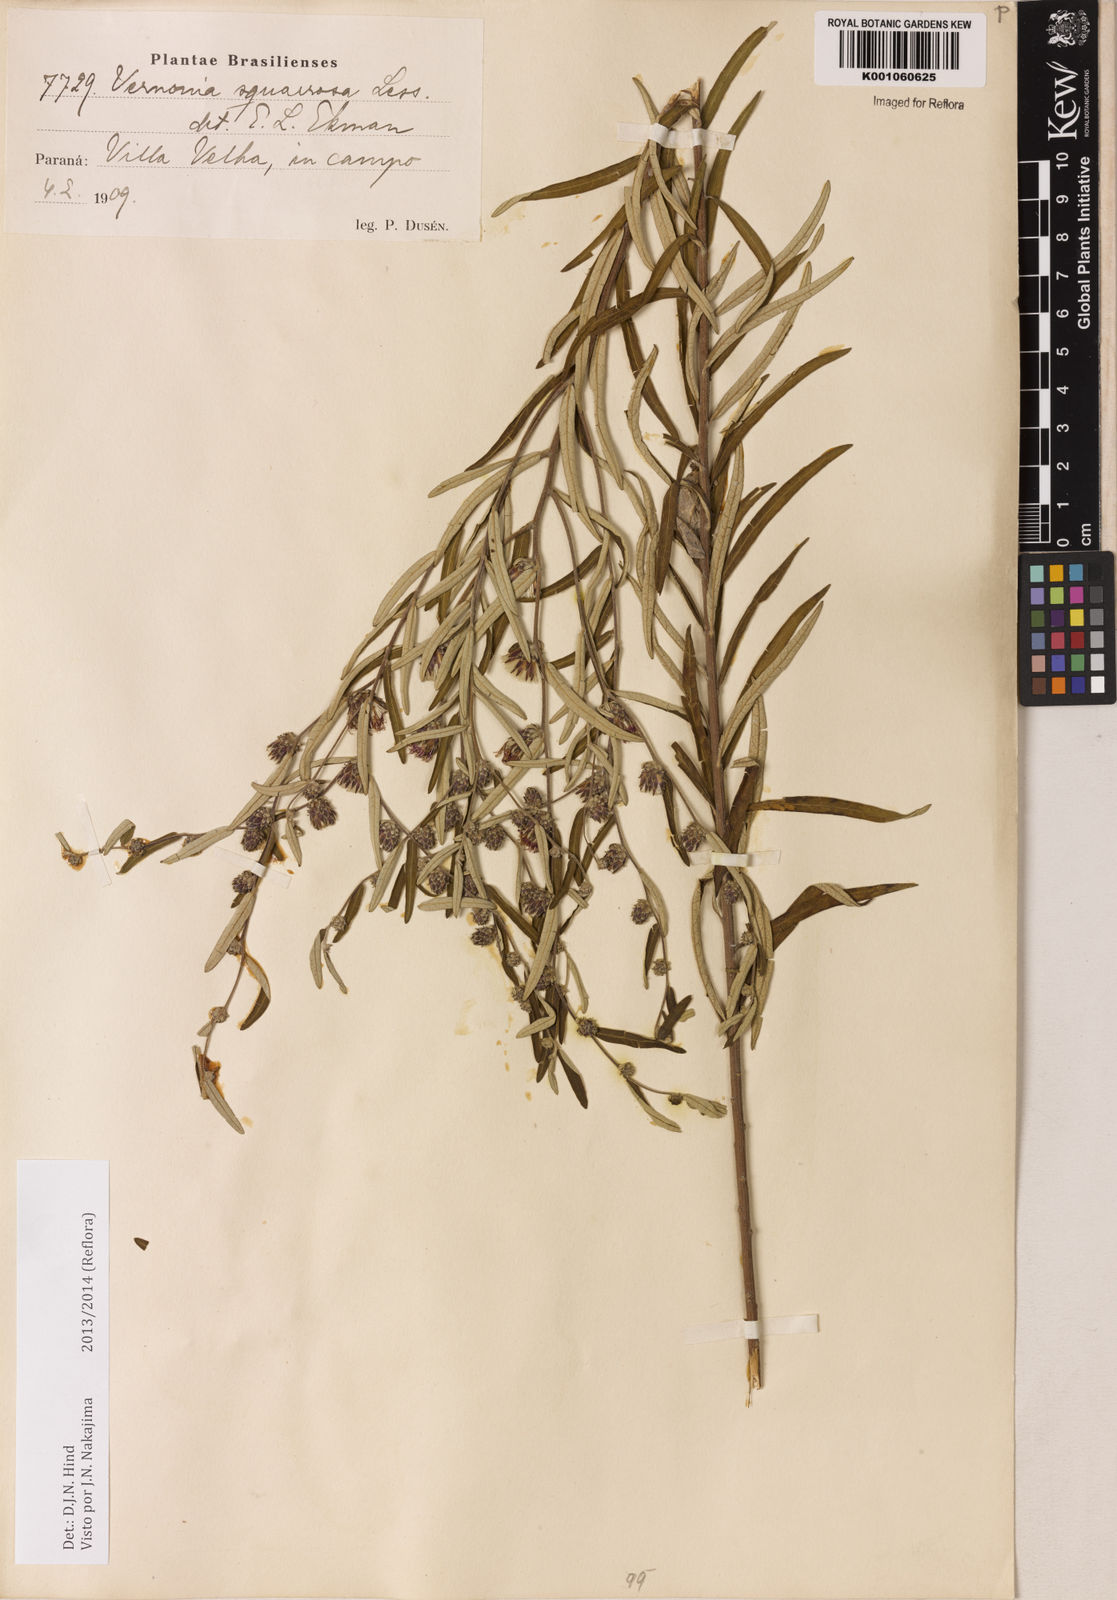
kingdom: Plantae
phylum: Tracheophyta
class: Magnoliopsida
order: Asterales
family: Asteraceae
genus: Lessingianthus
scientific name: Lessingianthus plantaginoides
